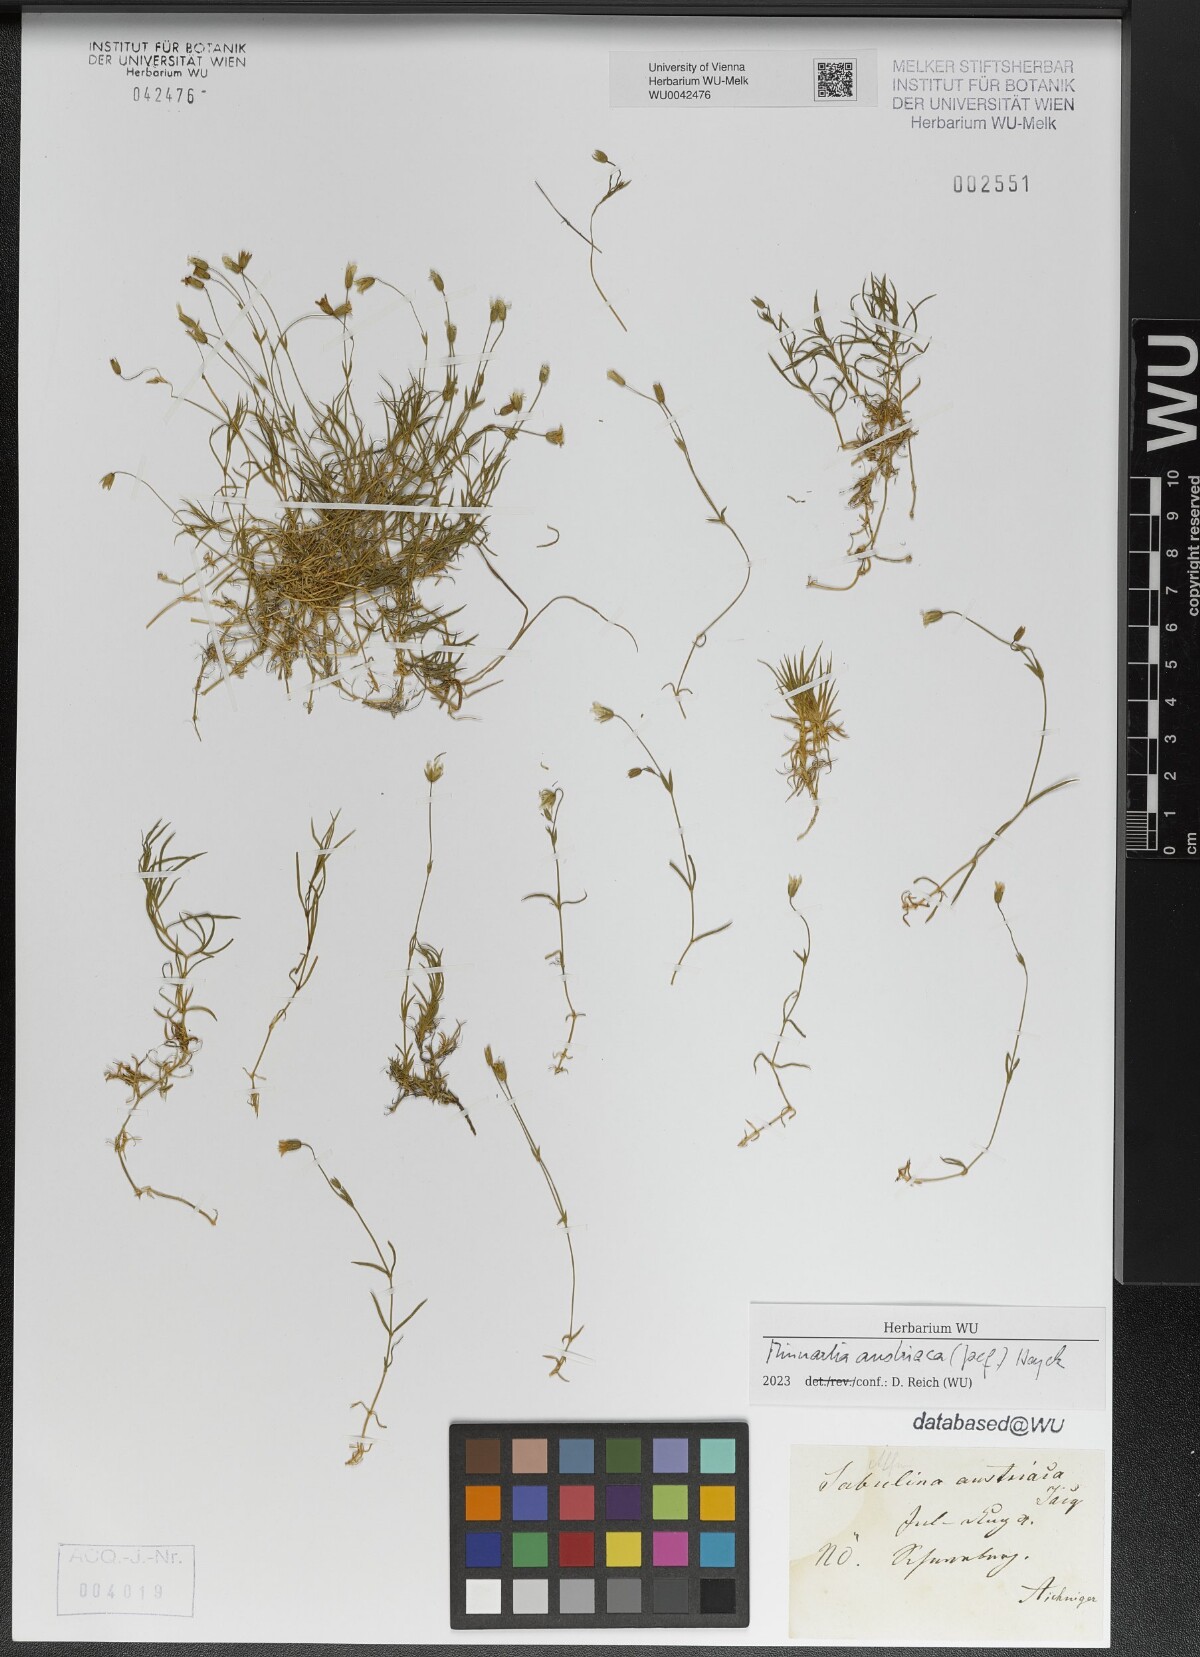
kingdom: Plantae
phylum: Tracheophyta
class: Magnoliopsida
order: Caryophyllales
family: Caryophyllaceae
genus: Sabulina
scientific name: Sabulina austriaca
